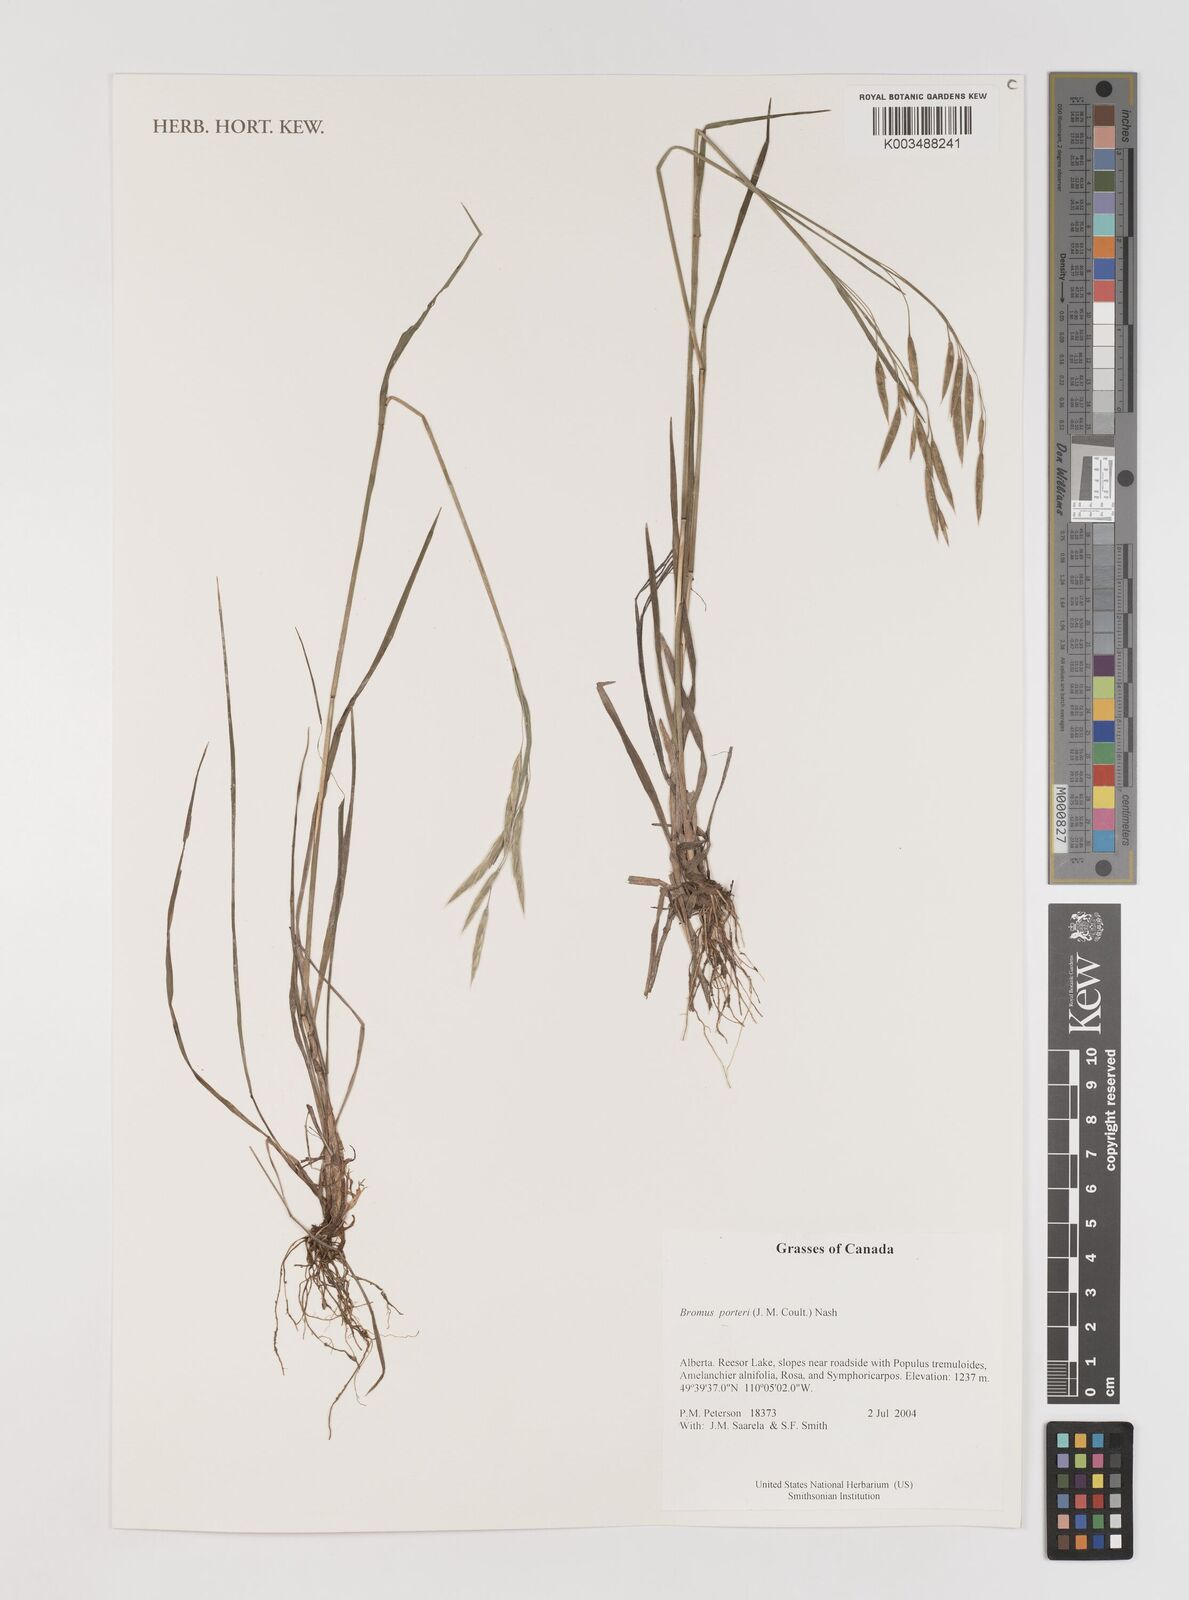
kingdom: Plantae
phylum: Tracheophyta
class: Liliopsida
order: Poales
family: Poaceae
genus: Bromus
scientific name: Bromus porteri
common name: Nodding brome
